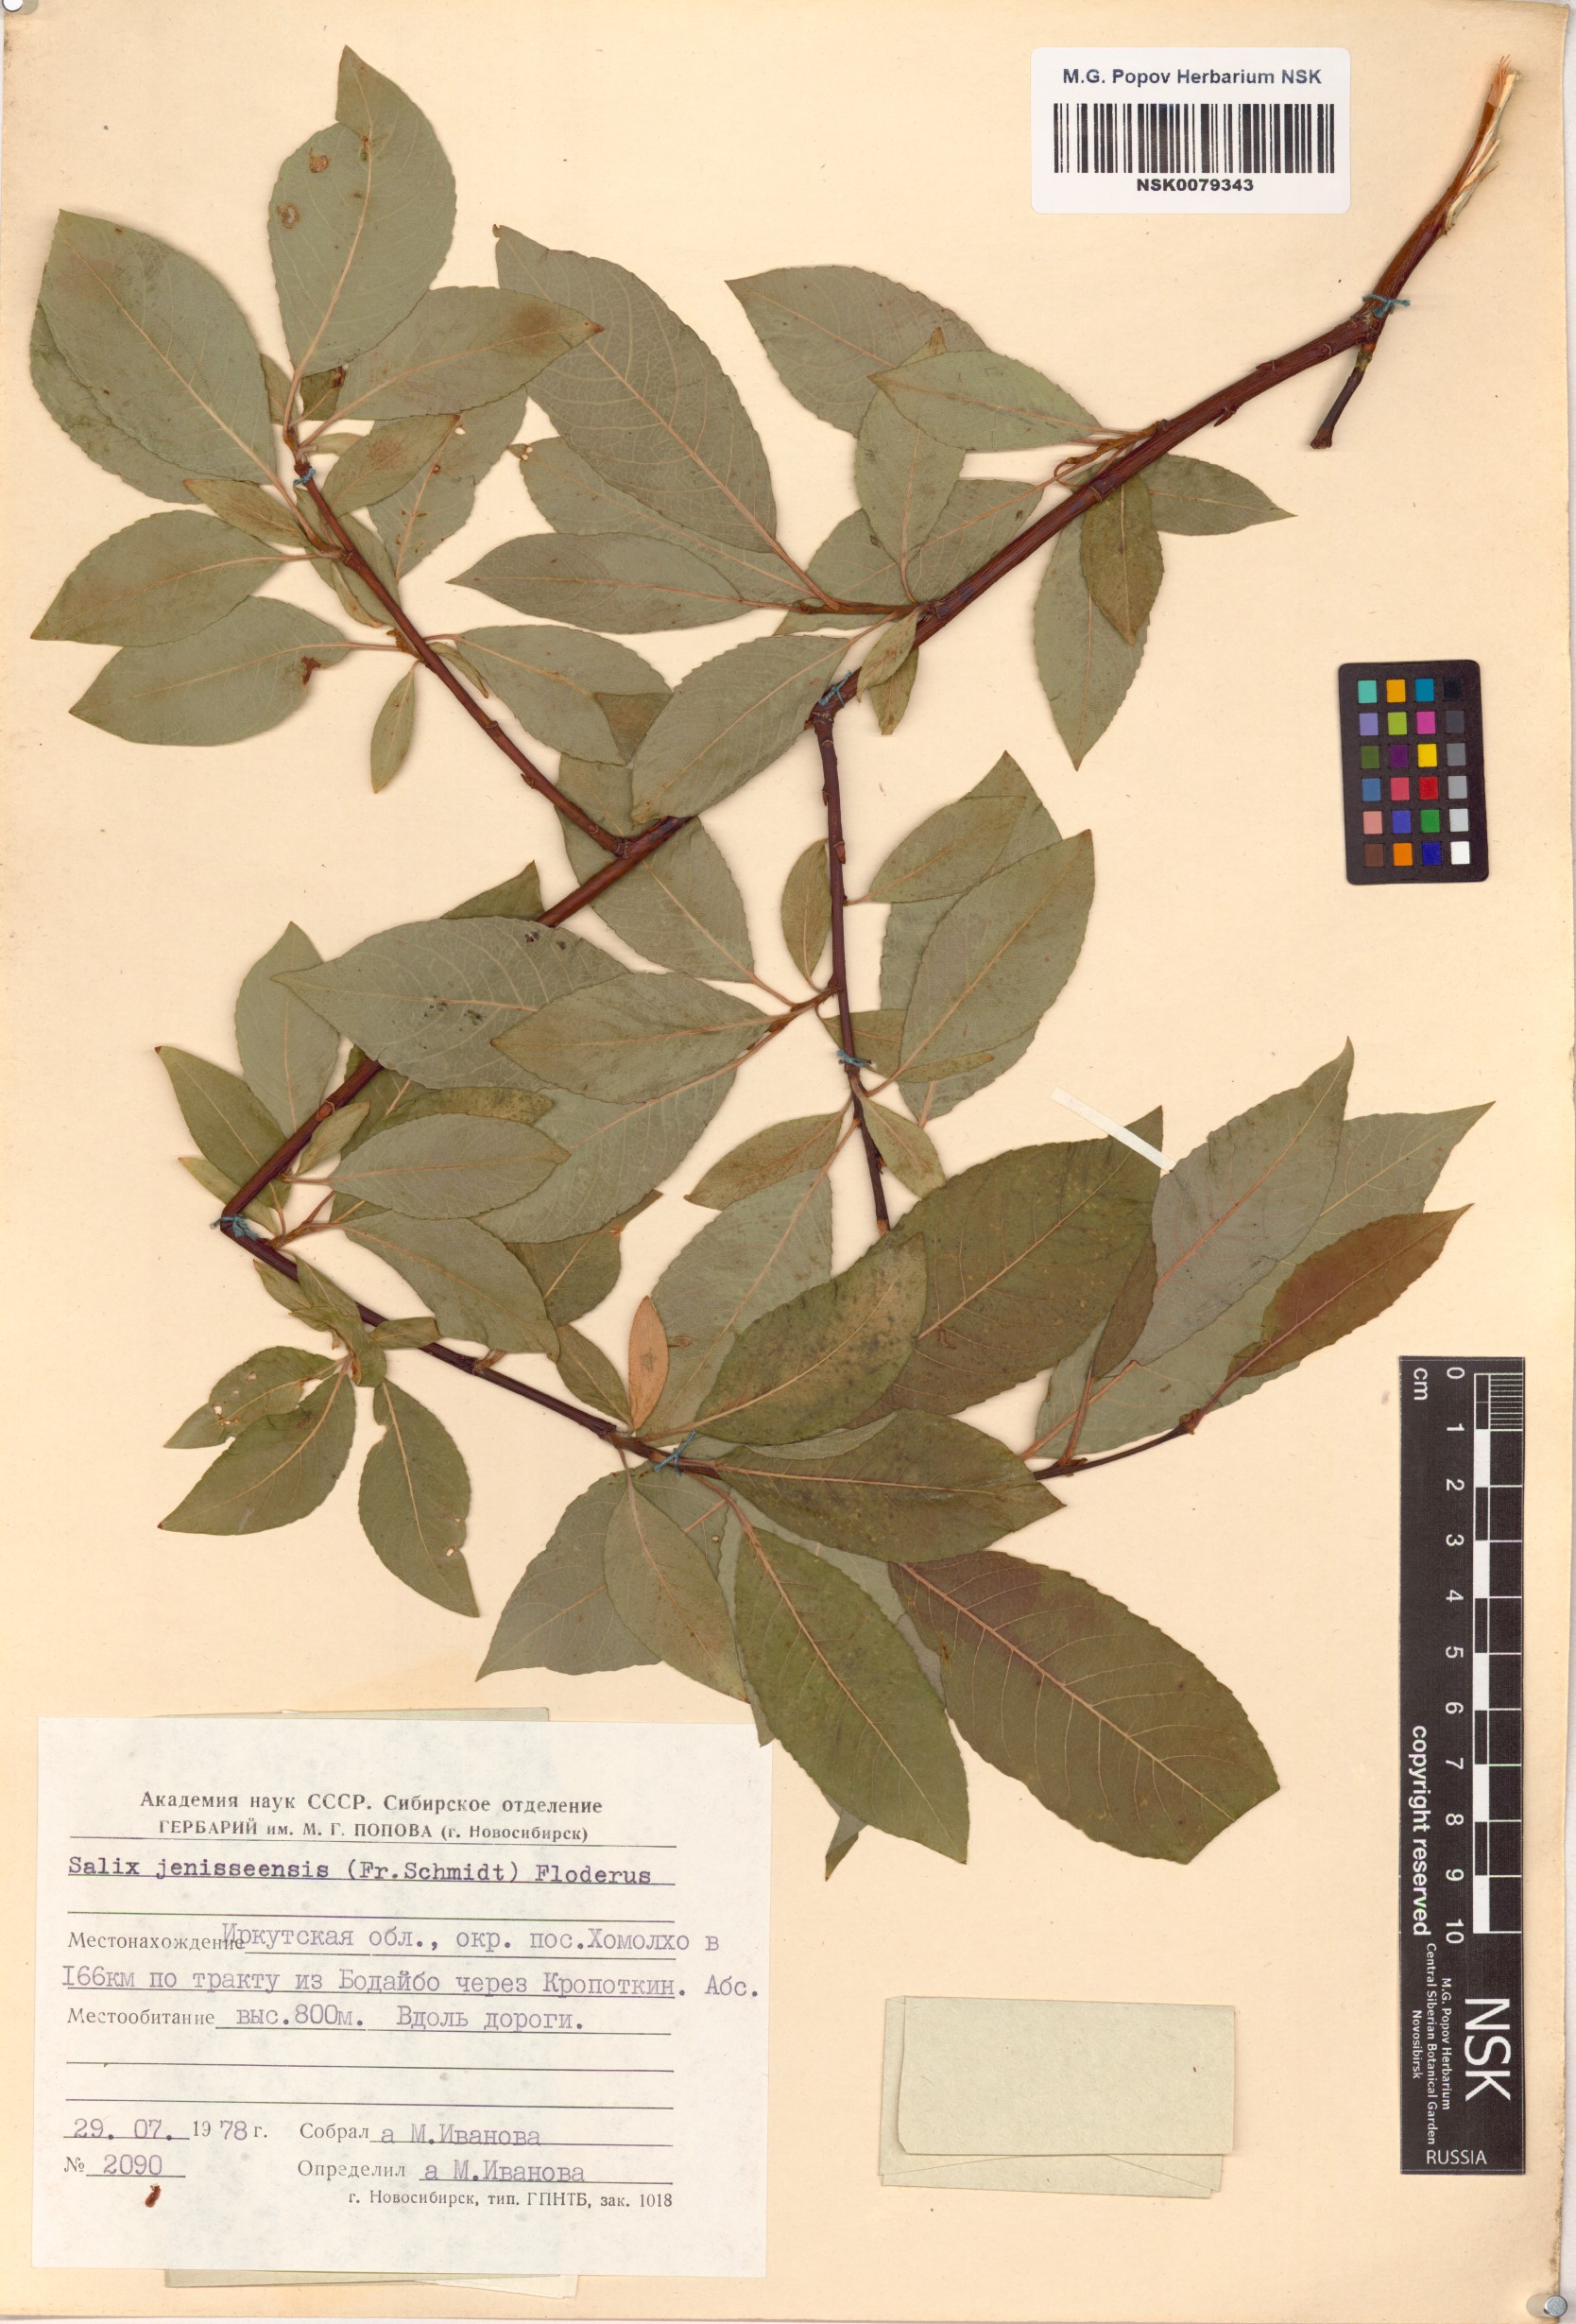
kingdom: Plantae
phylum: Tracheophyta
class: Magnoliopsida
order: Malpighiales
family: Salicaceae
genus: Salix
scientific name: Salix jenisseensis
